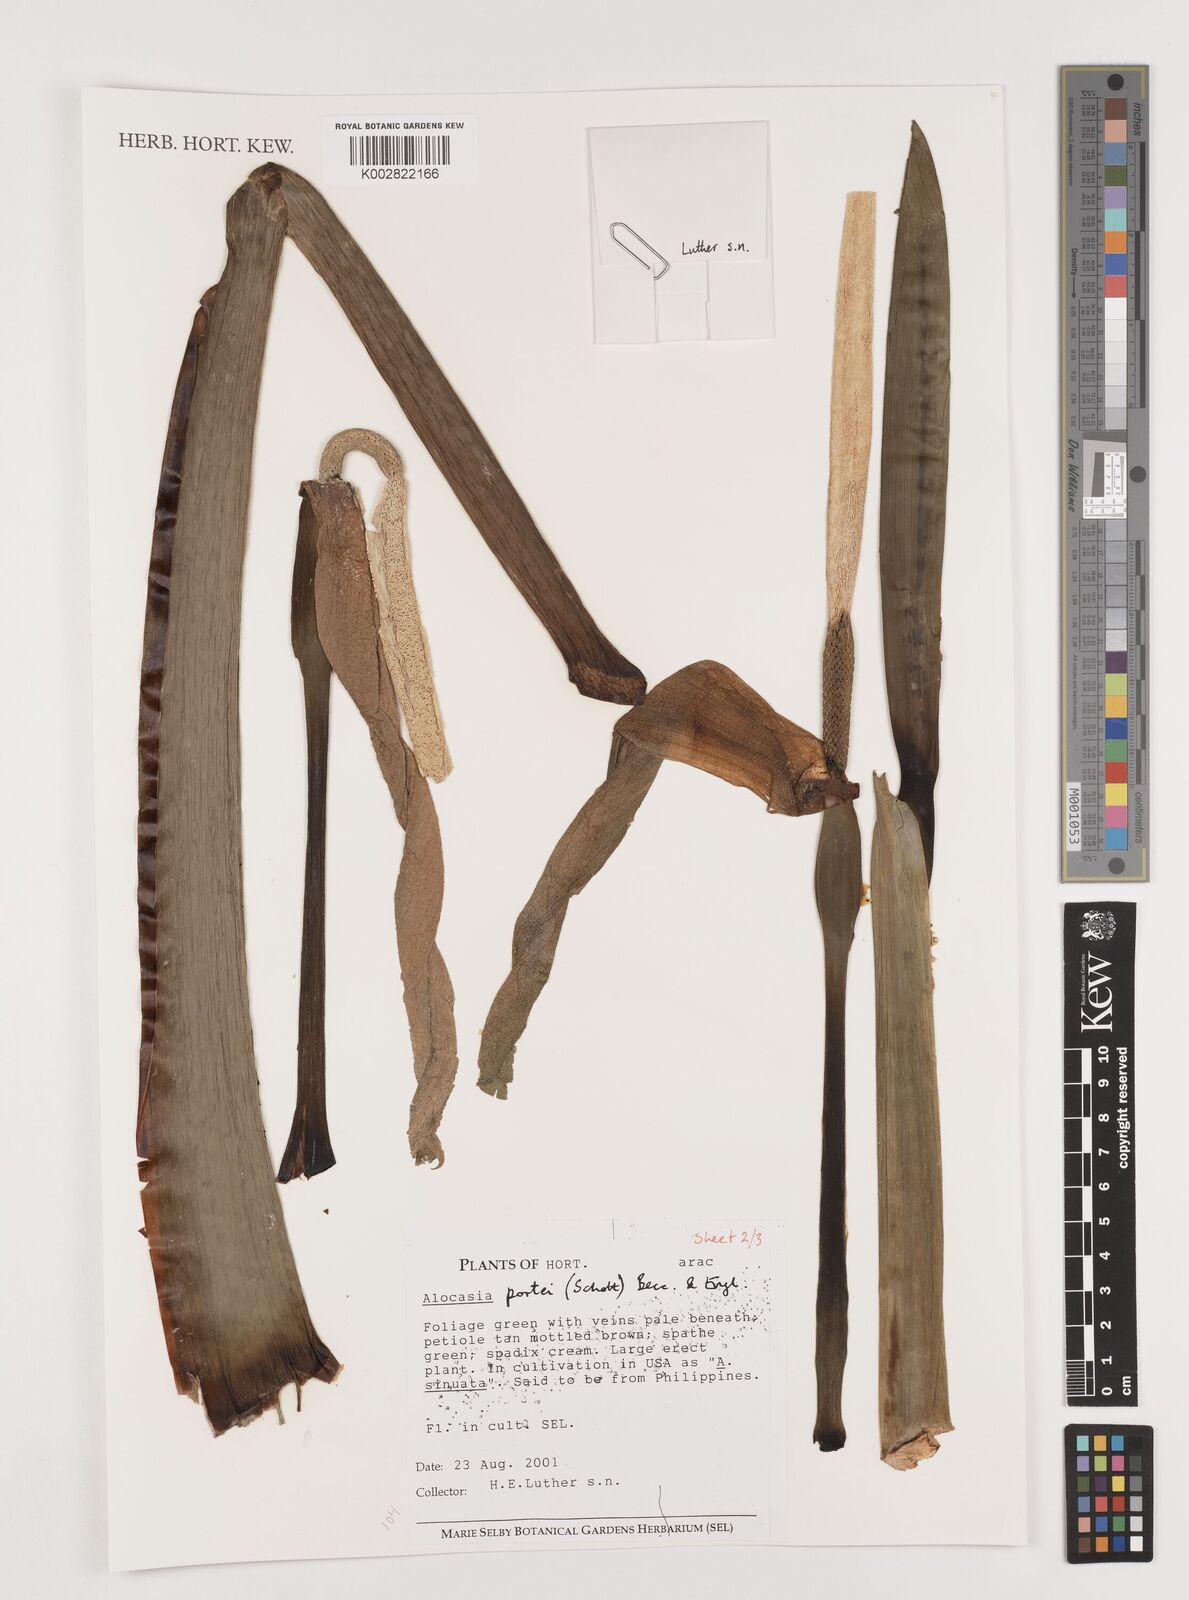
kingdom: Plantae
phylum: Tracheophyta
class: Liliopsida
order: Alismatales
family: Araceae
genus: Alocasia
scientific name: Alocasia portei
